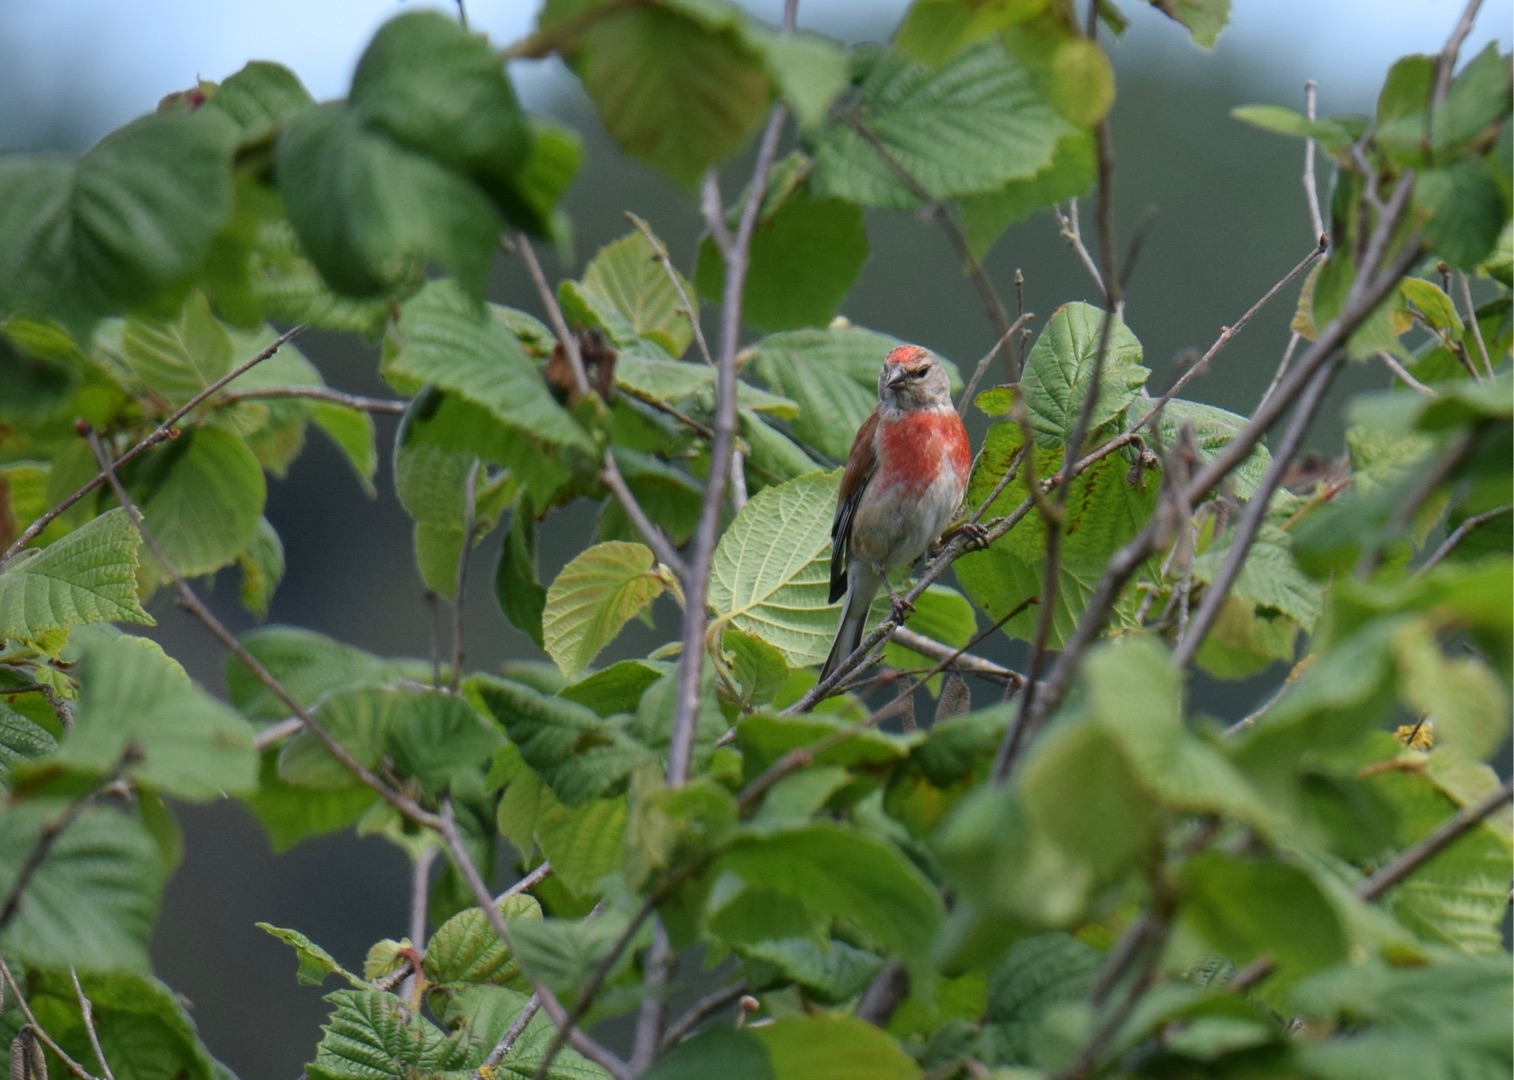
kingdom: Animalia
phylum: Chordata
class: Aves
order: Passeriformes
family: Fringillidae
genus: Linaria
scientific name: Linaria cannabina
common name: Tornirisk
